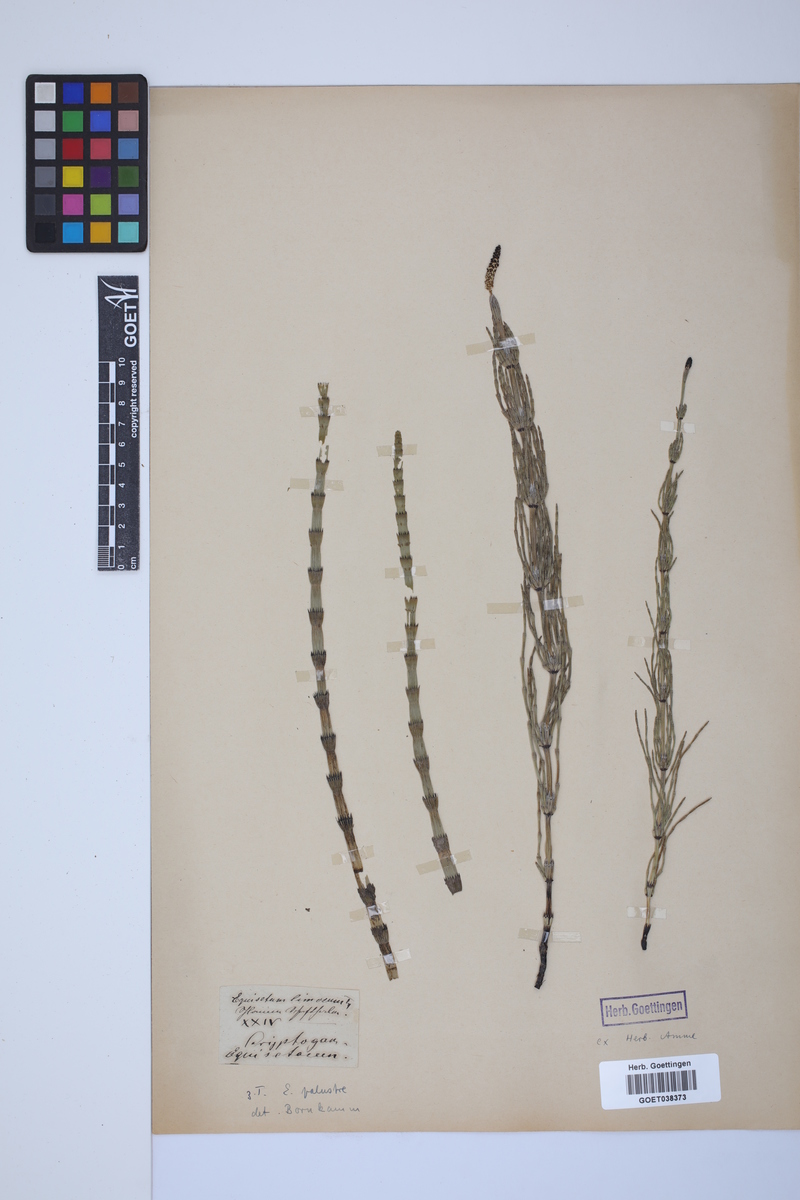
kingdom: Plantae
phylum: Tracheophyta
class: Polypodiopsida
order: Equisetales
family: Equisetaceae
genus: Equisetum
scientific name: Equisetum fluviatile
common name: Water horsetail
